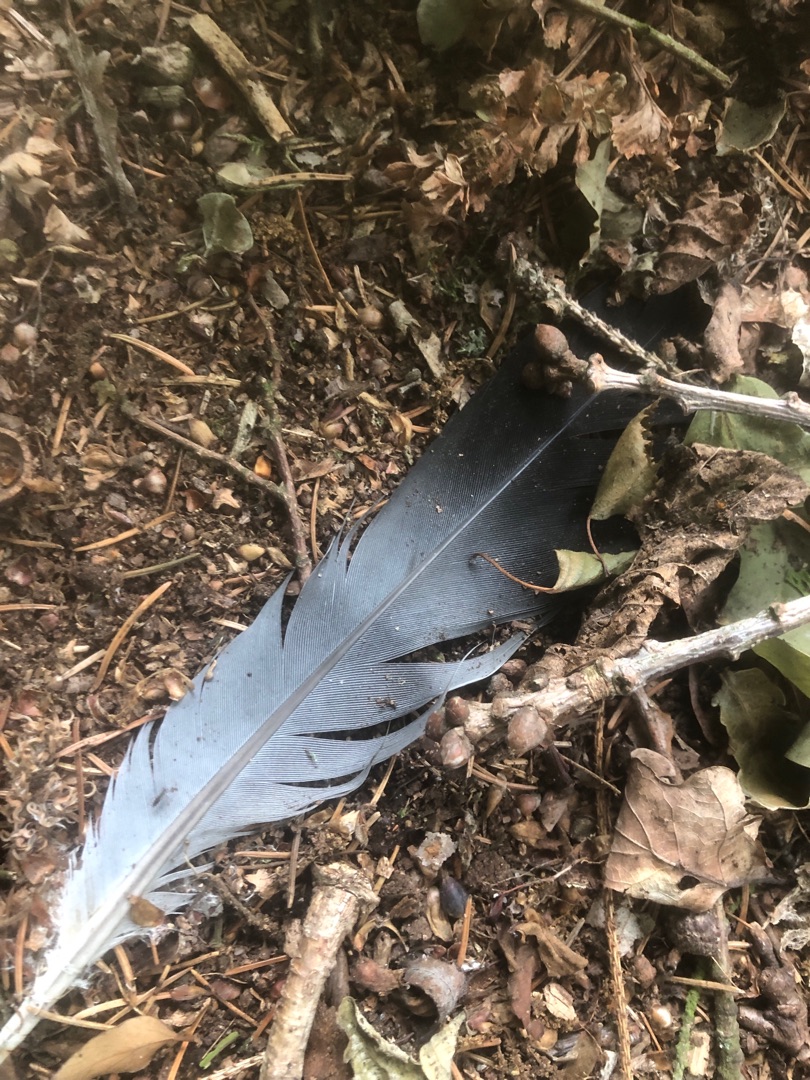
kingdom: Animalia
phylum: Chordata
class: Aves
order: Columbiformes
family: Columbidae
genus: Columba
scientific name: Columba palumbus
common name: Ringdue
